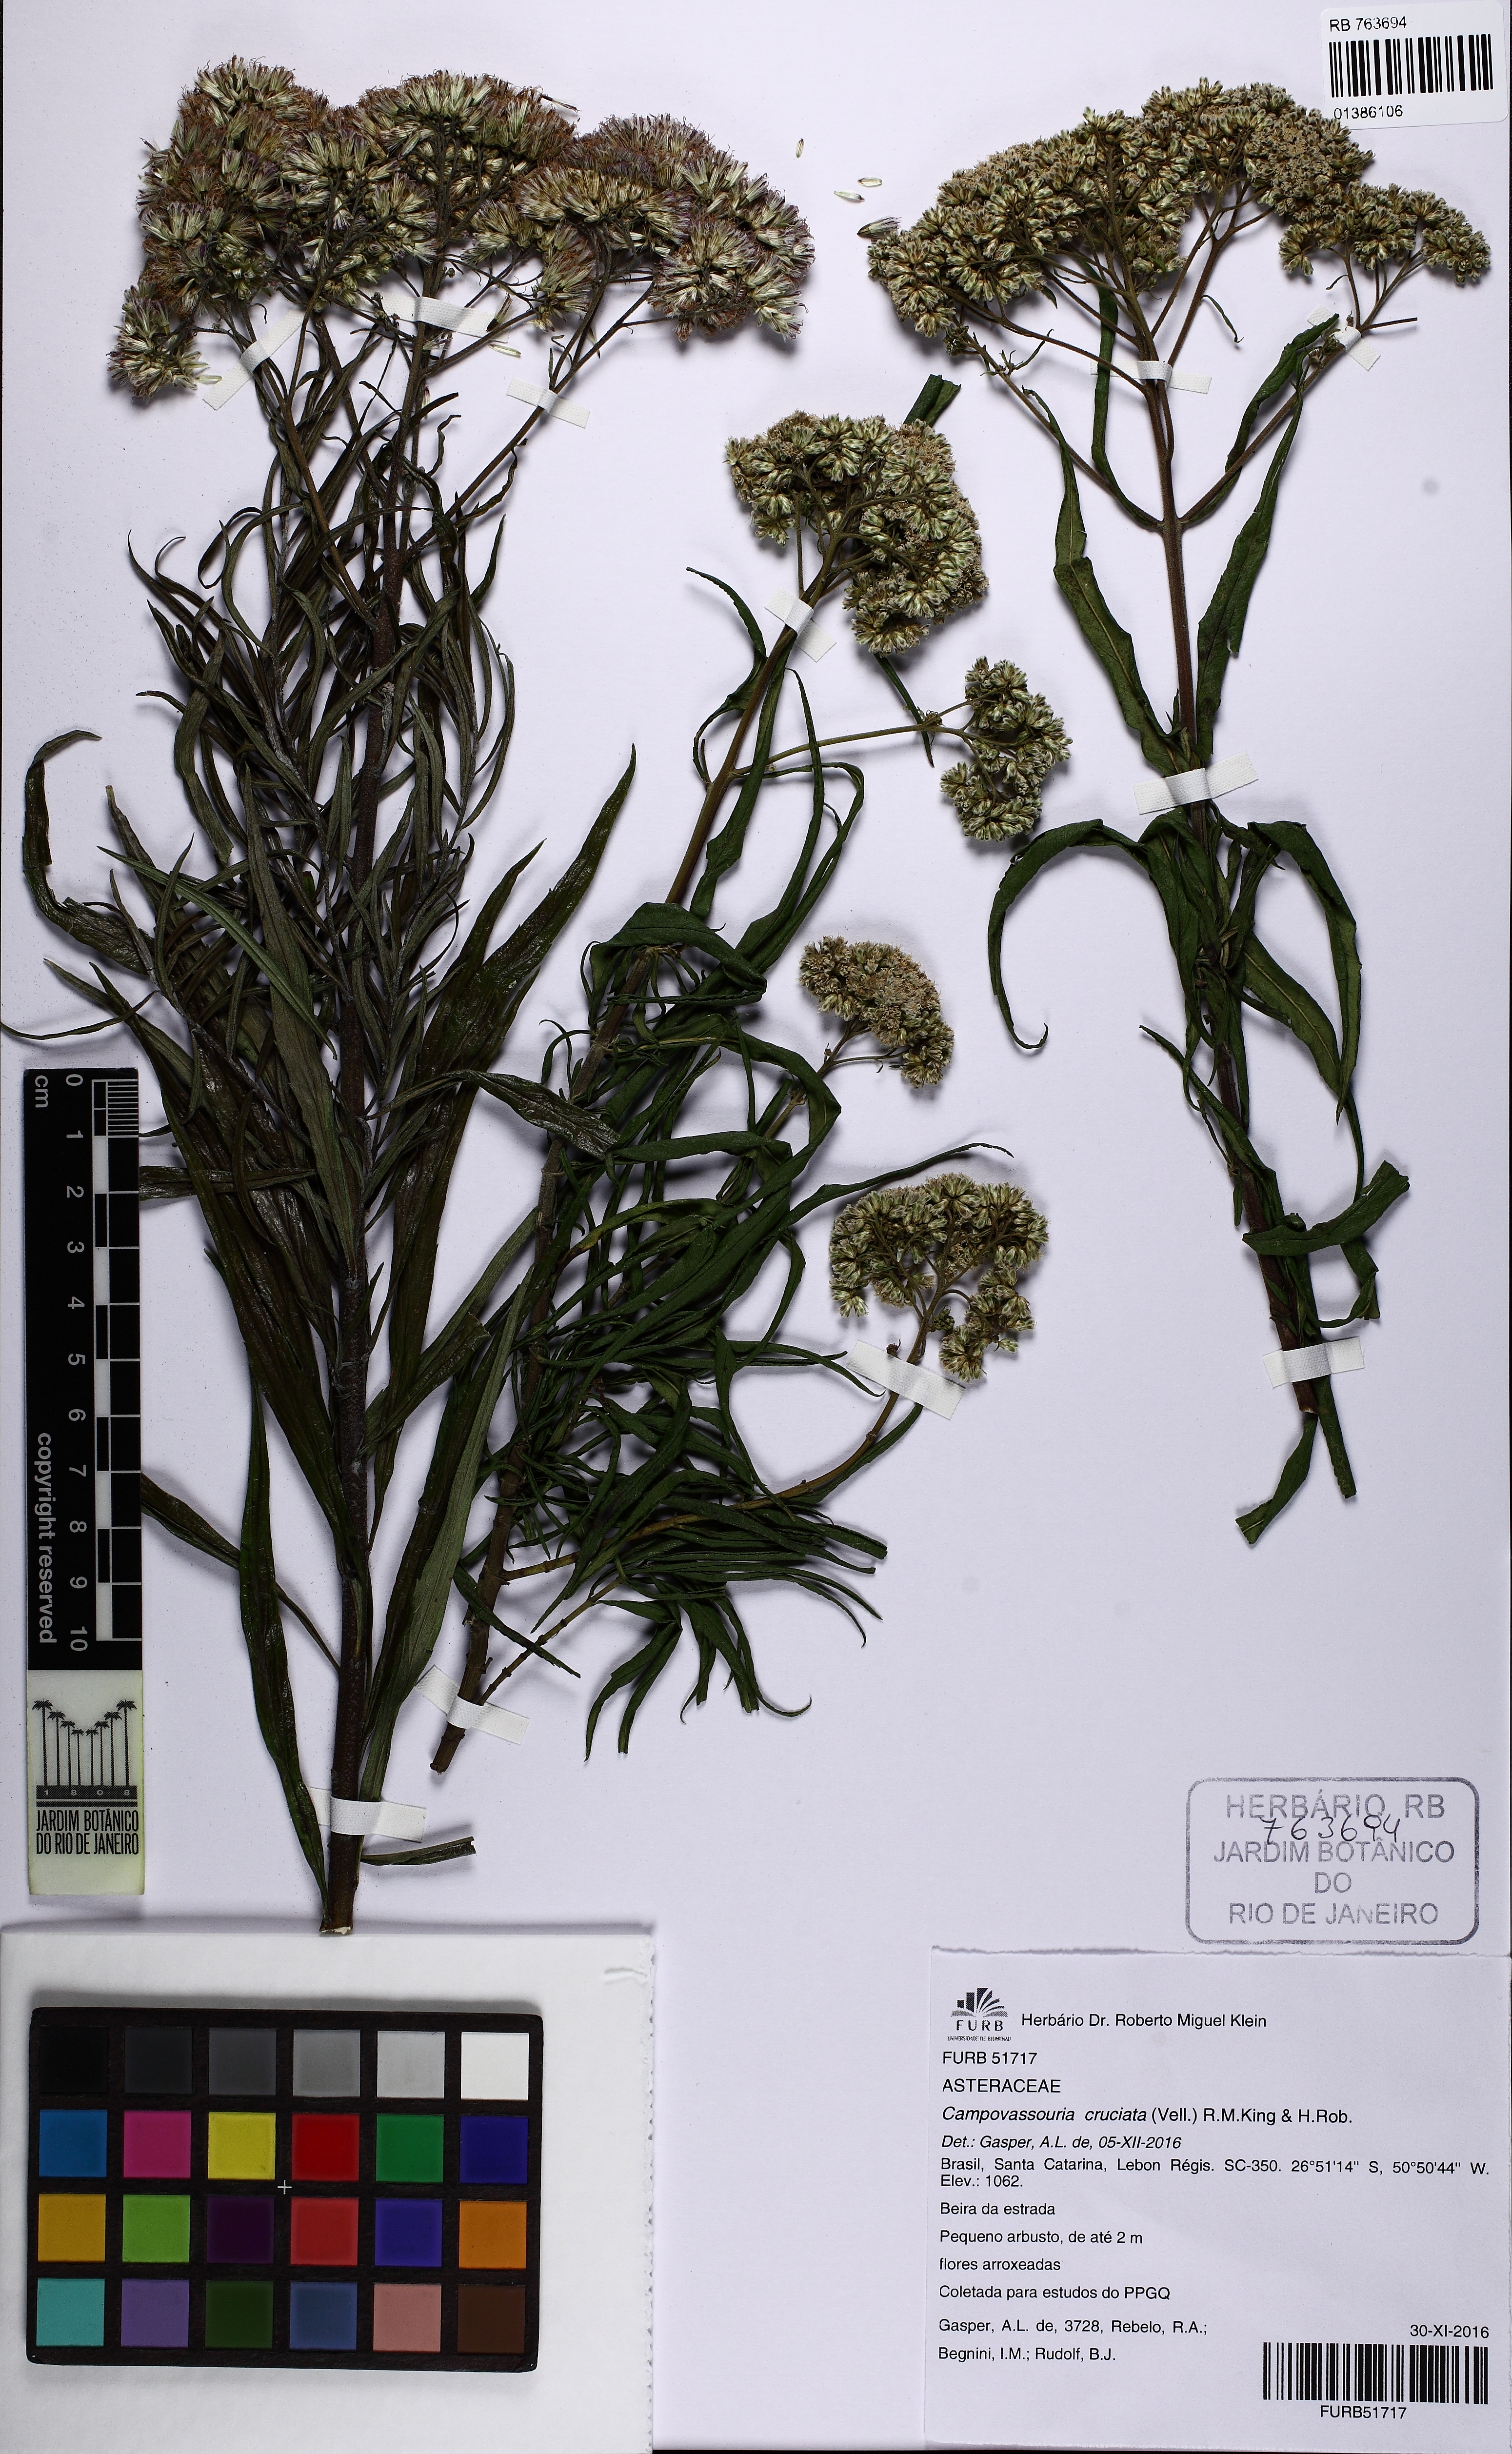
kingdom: Plantae
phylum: Tracheophyta
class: Magnoliopsida
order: Asterales
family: Asteraceae
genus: Campovassouria
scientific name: Campovassouria cruciata
